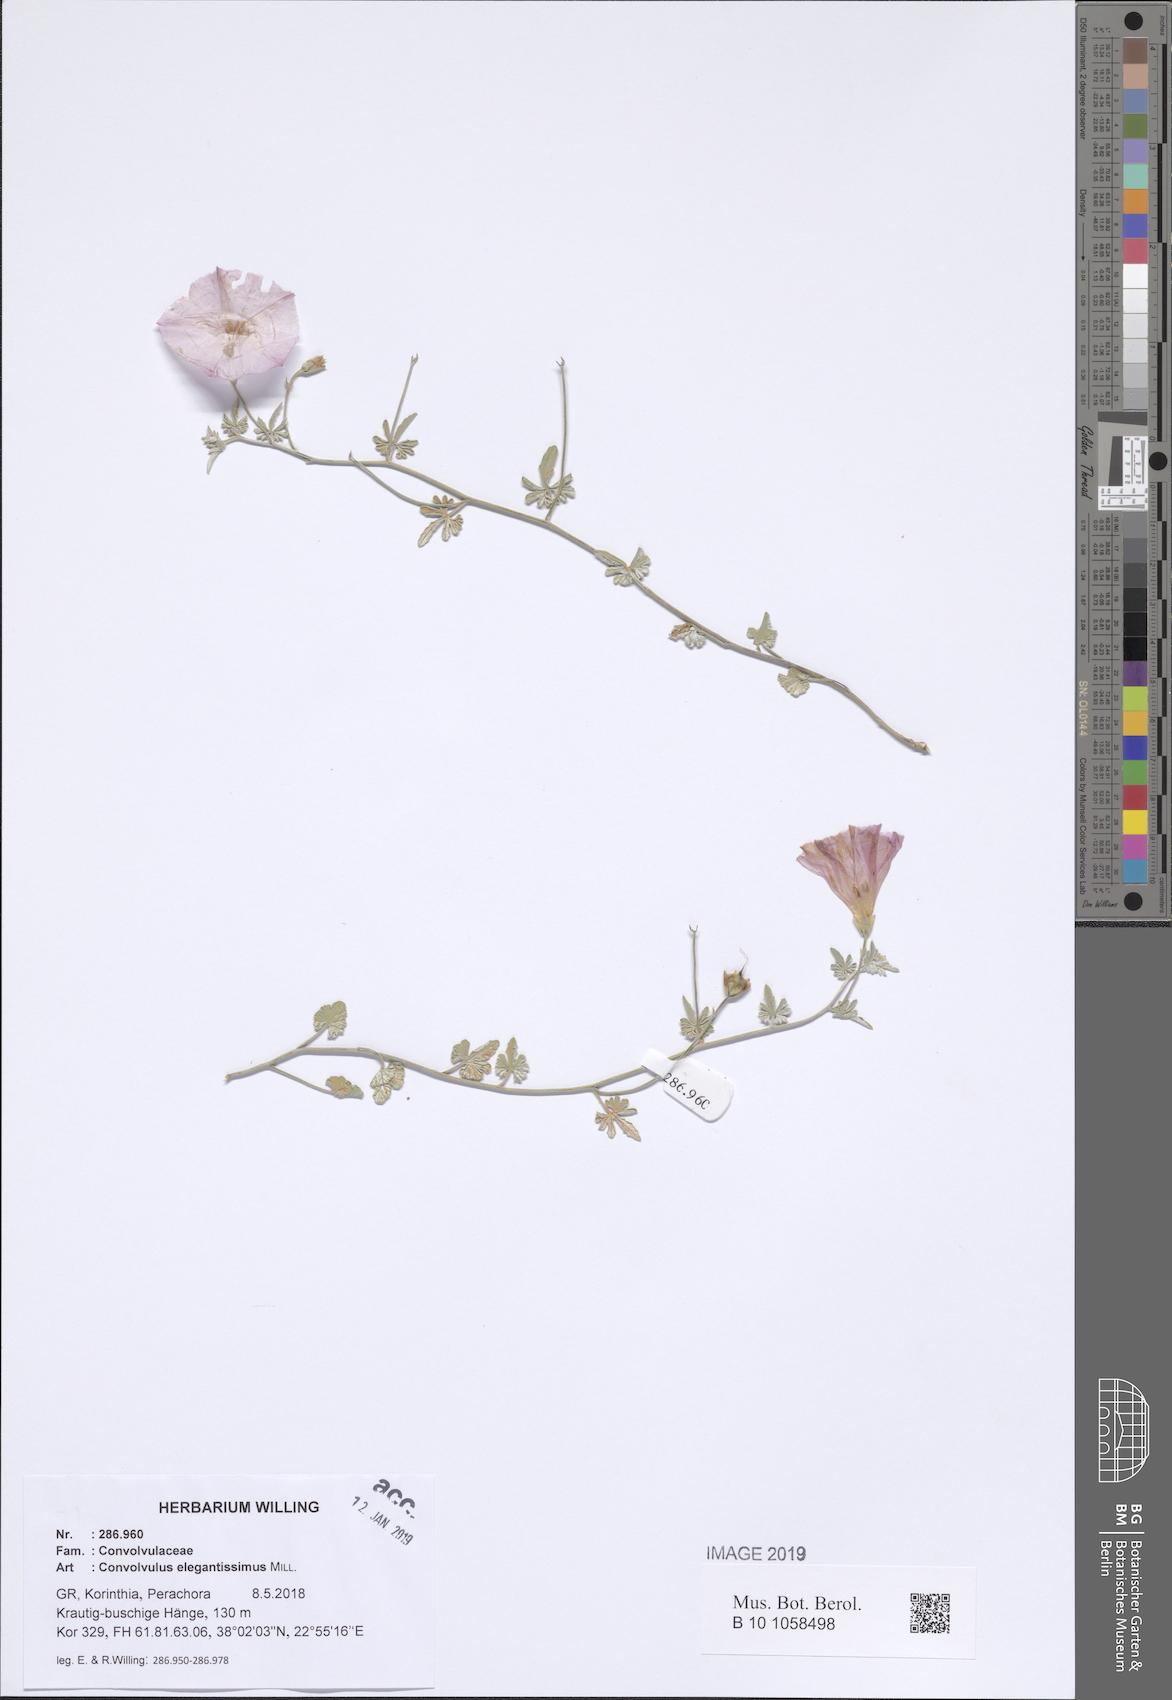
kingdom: Plantae
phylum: Tracheophyta
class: Magnoliopsida
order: Solanales
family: Convolvulaceae
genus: Convolvulus
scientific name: Convolvulus elegantissimus
